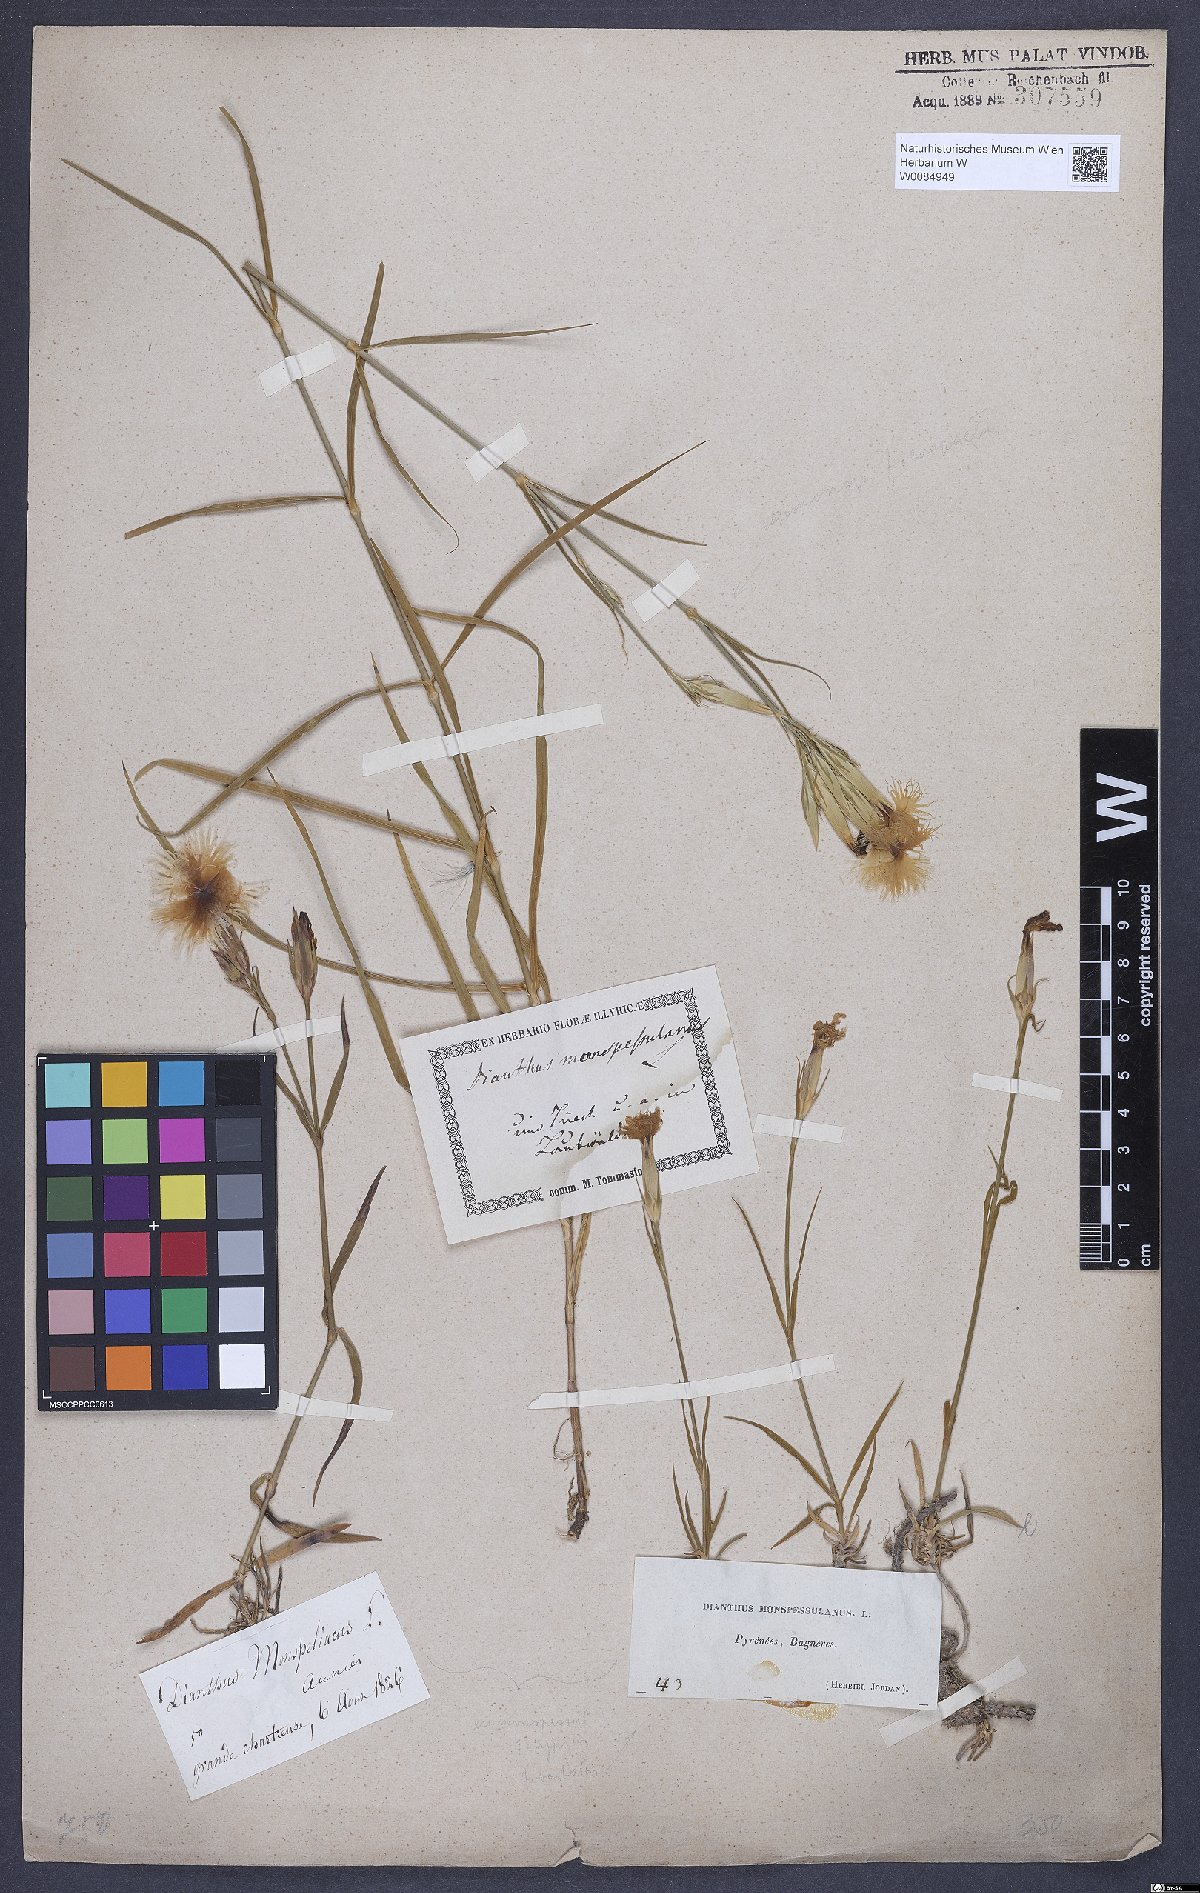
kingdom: Plantae
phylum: Tracheophyta
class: Magnoliopsida
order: Caryophyllales
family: Caryophyllaceae
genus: Dianthus
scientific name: Dianthus hyssopifolius
